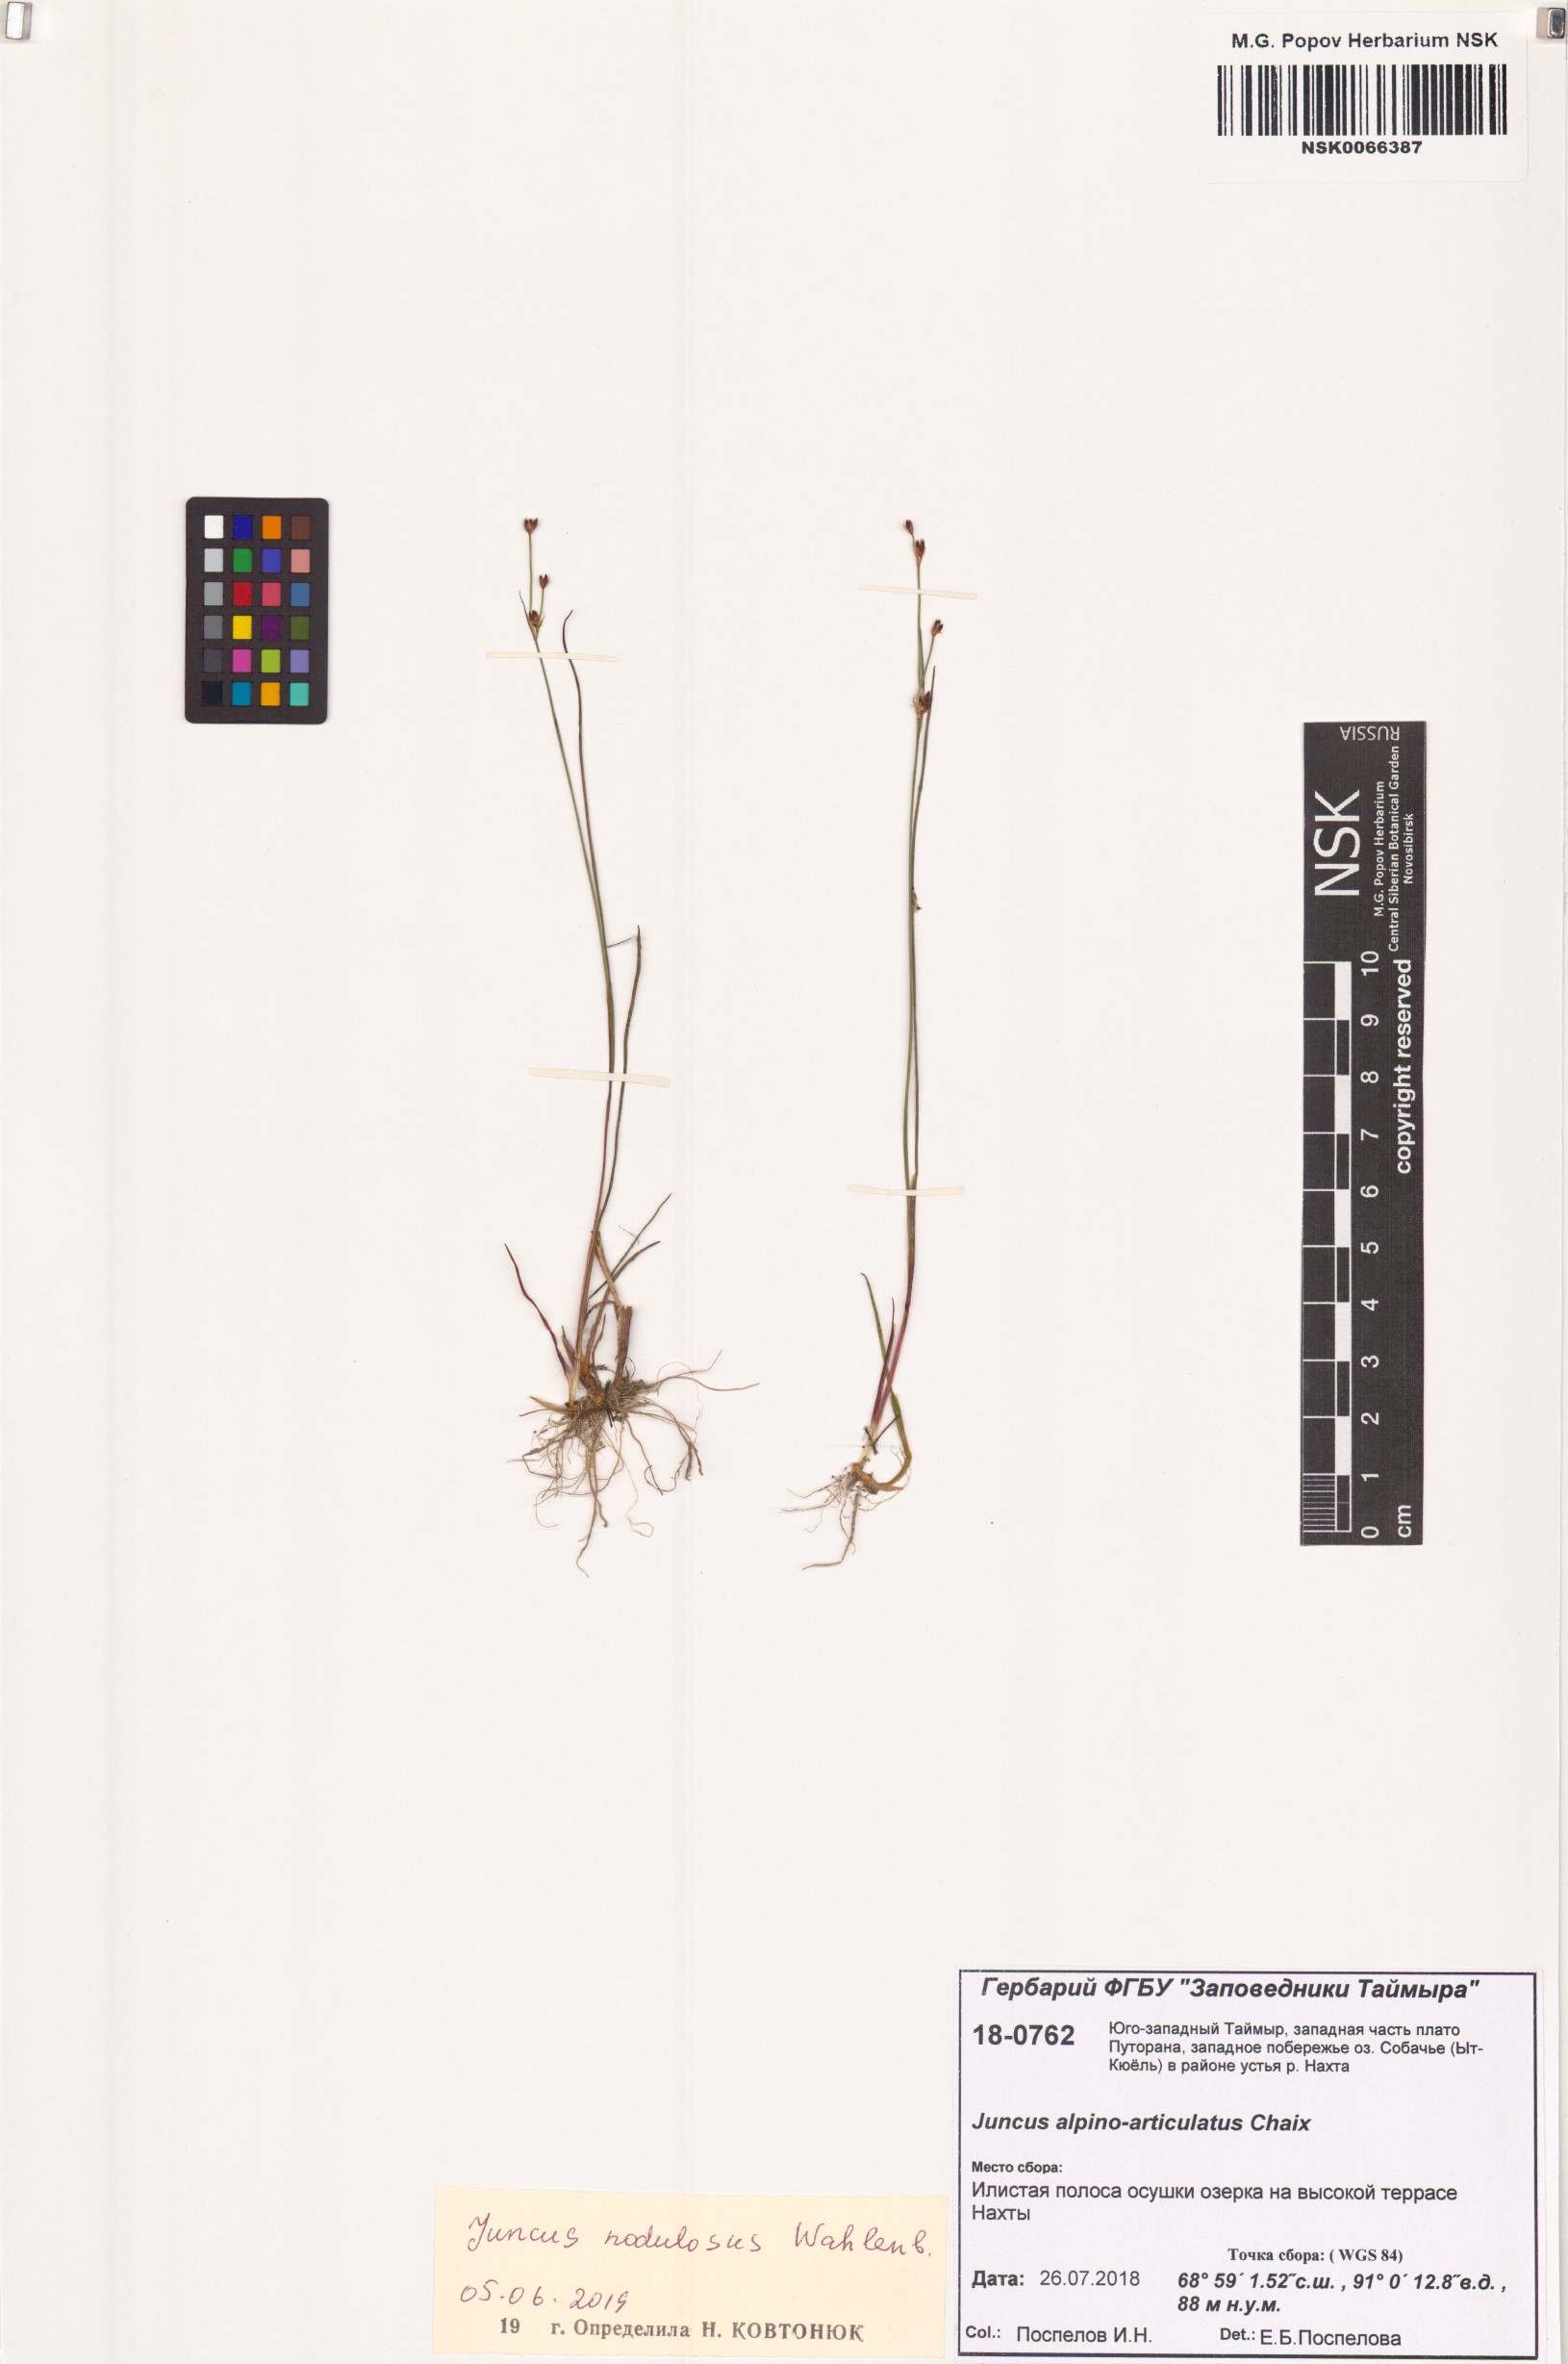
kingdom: Plantae
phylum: Tracheophyta
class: Liliopsida
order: Poales
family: Juncaceae
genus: Juncus
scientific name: Juncus alpinoarticulatus
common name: Alpine rush
